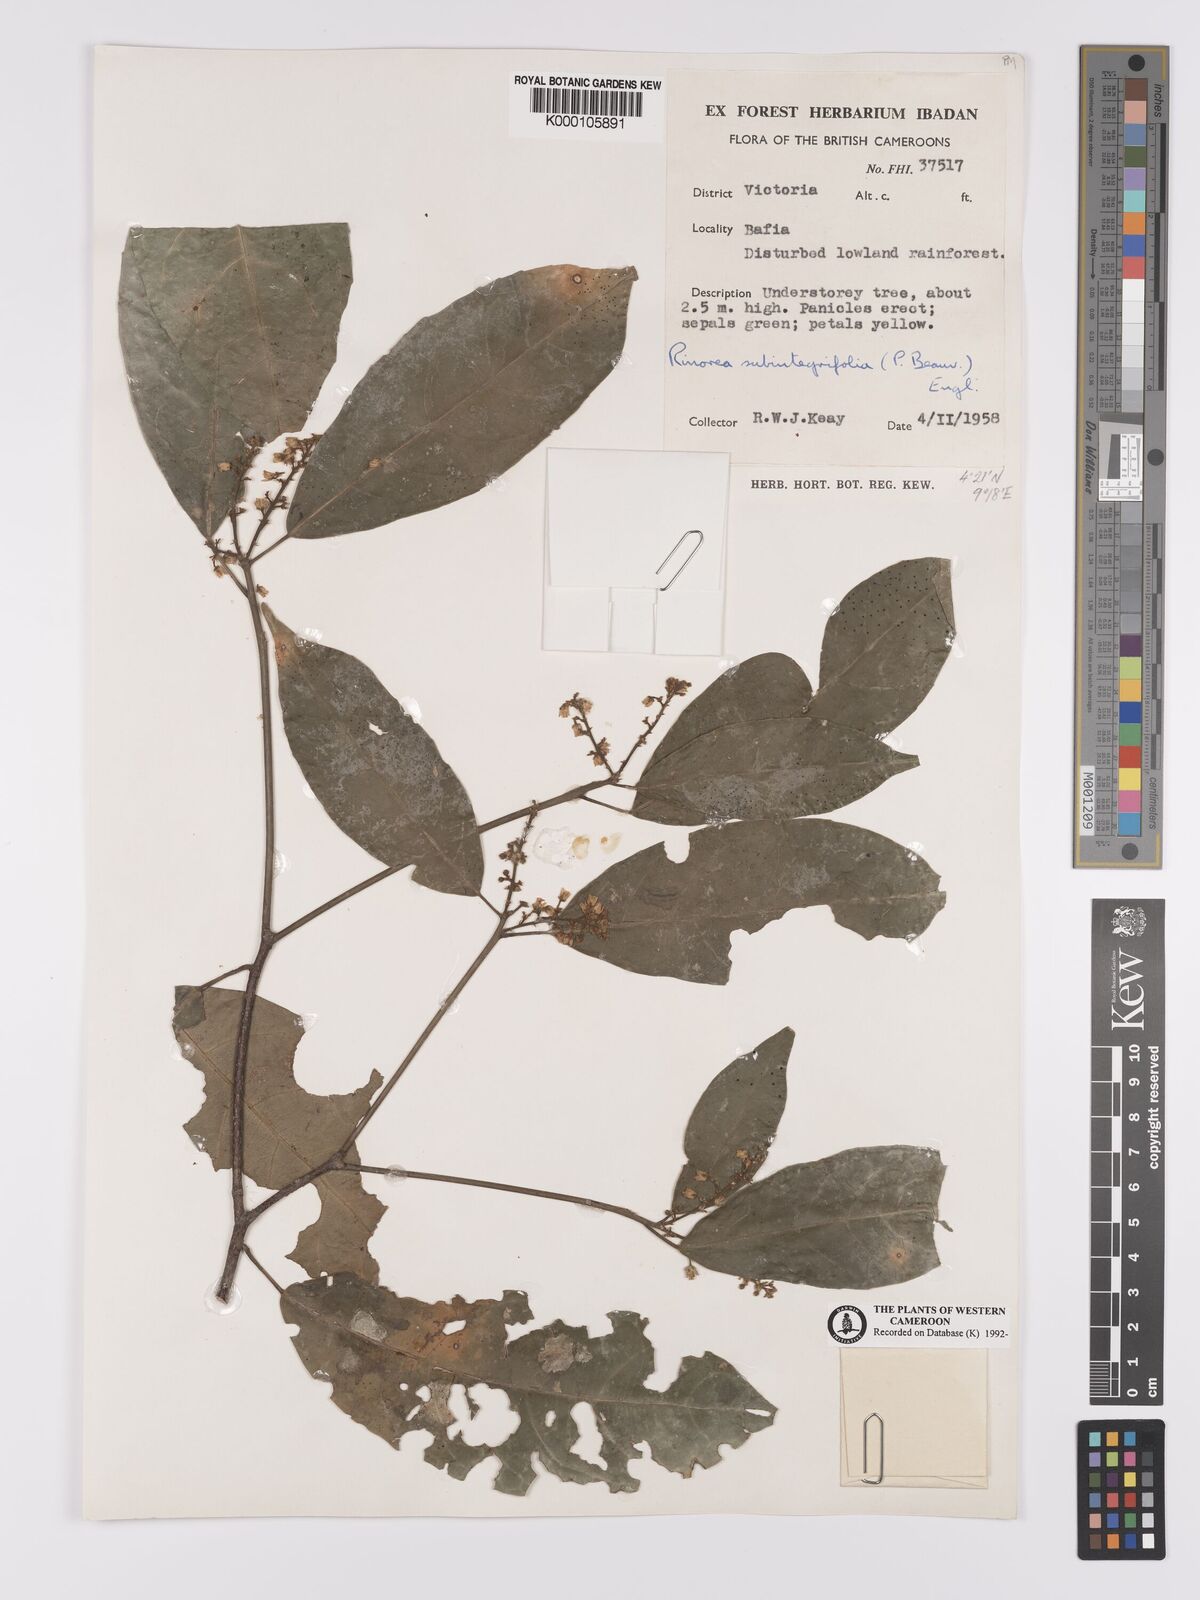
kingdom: Plantae
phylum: Tracheophyta
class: Magnoliopsida
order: Malpighiales
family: Violaceae
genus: Rinorea
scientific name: Rinorea subintegrifolia
